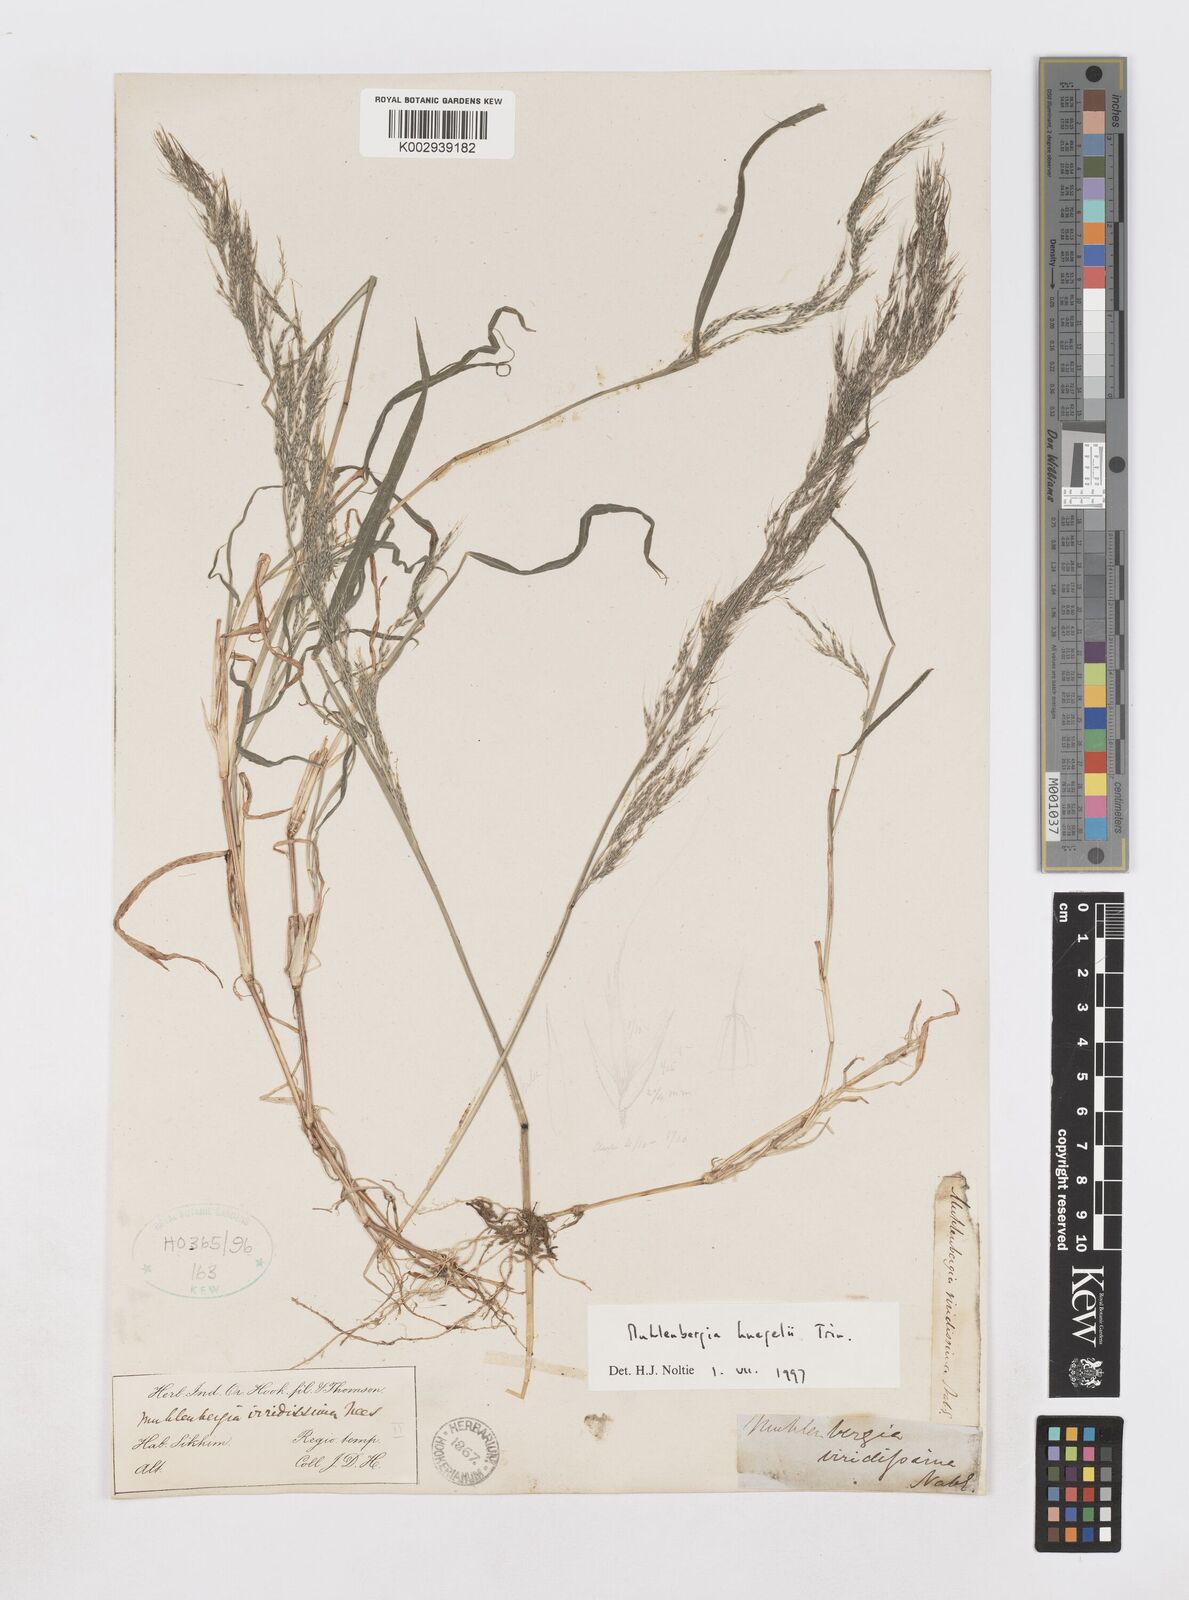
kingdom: Plantae
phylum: Tracheophyta
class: Liliopsida
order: Poales
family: Poaceae
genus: Muhlenbergia
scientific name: Muhlenbergia huegelii
